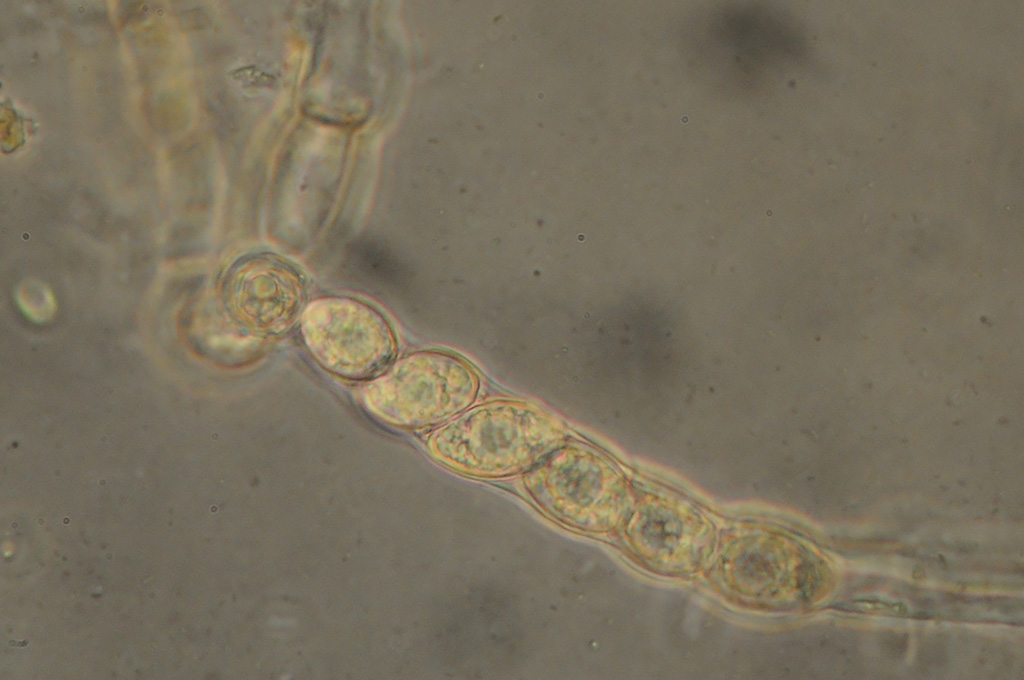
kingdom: Fungi
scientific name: Fungi
